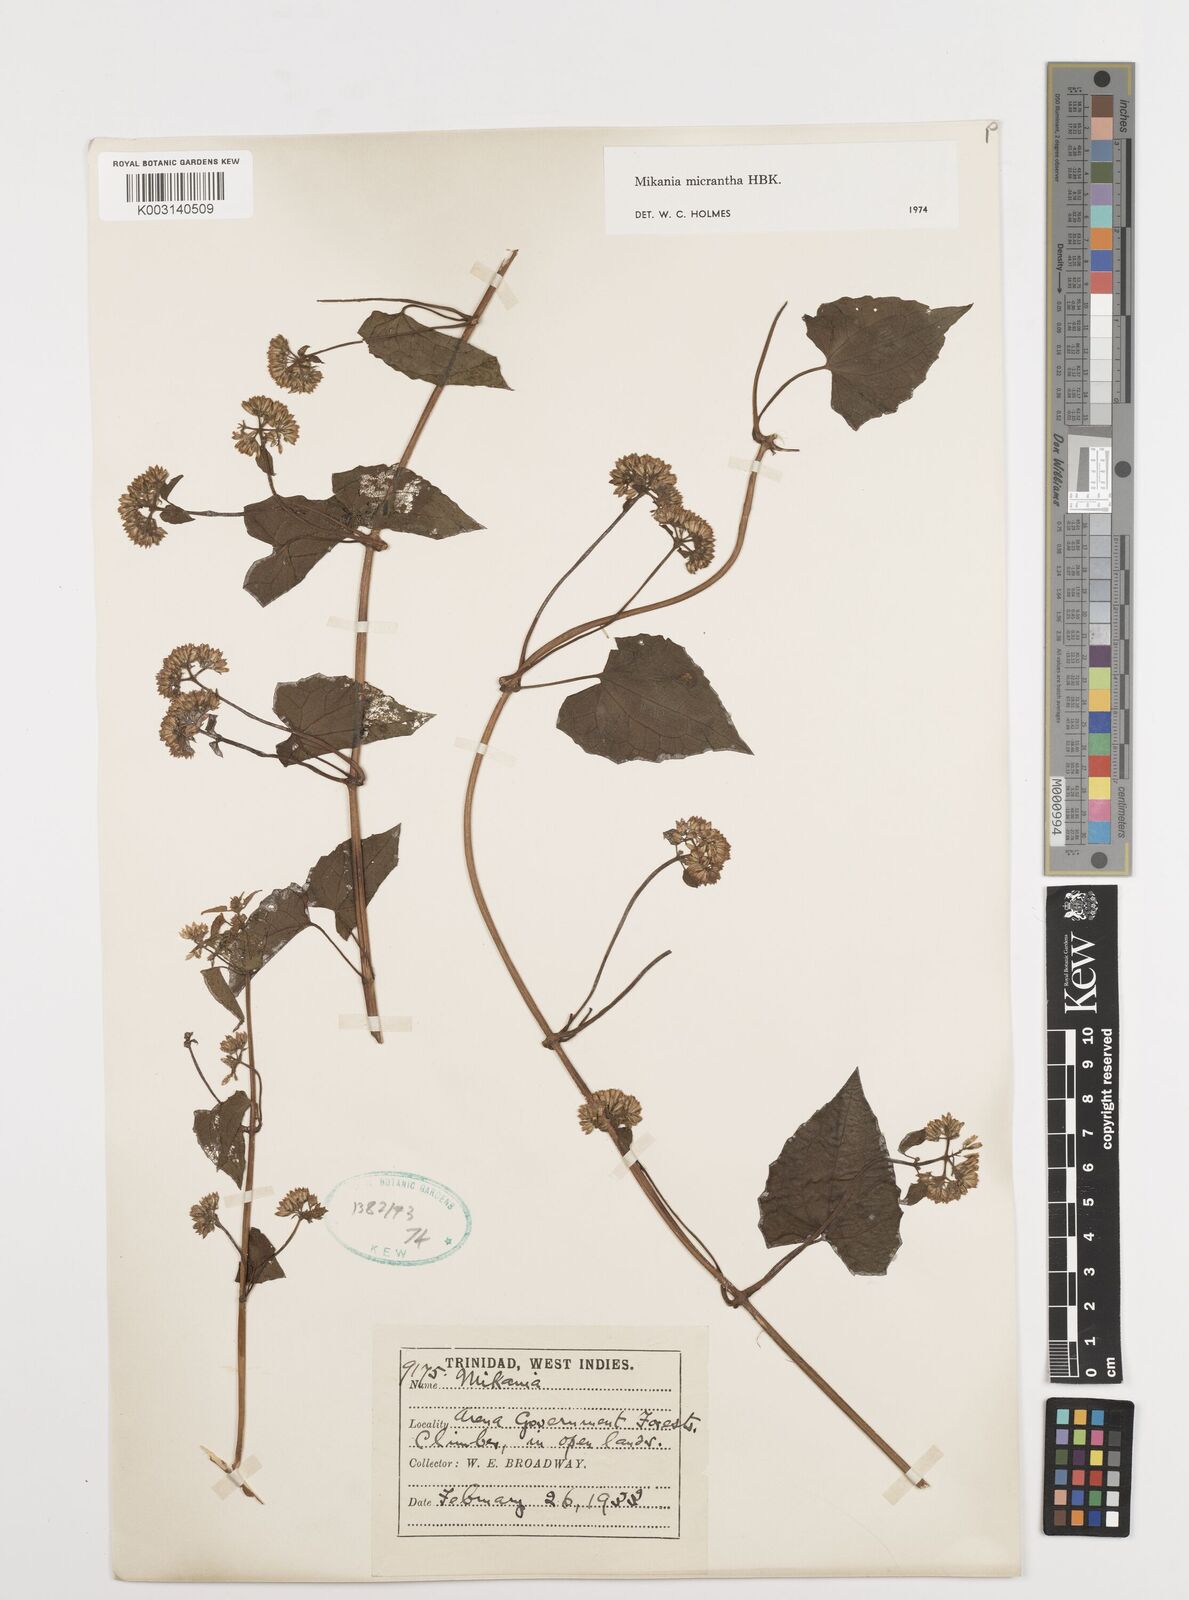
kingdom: Plantae
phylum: Tracheophyta
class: Magnoliopsida
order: Asterales
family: Asteraceae
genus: Mikania
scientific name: Mikania micrantha
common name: Mile-a-minute
